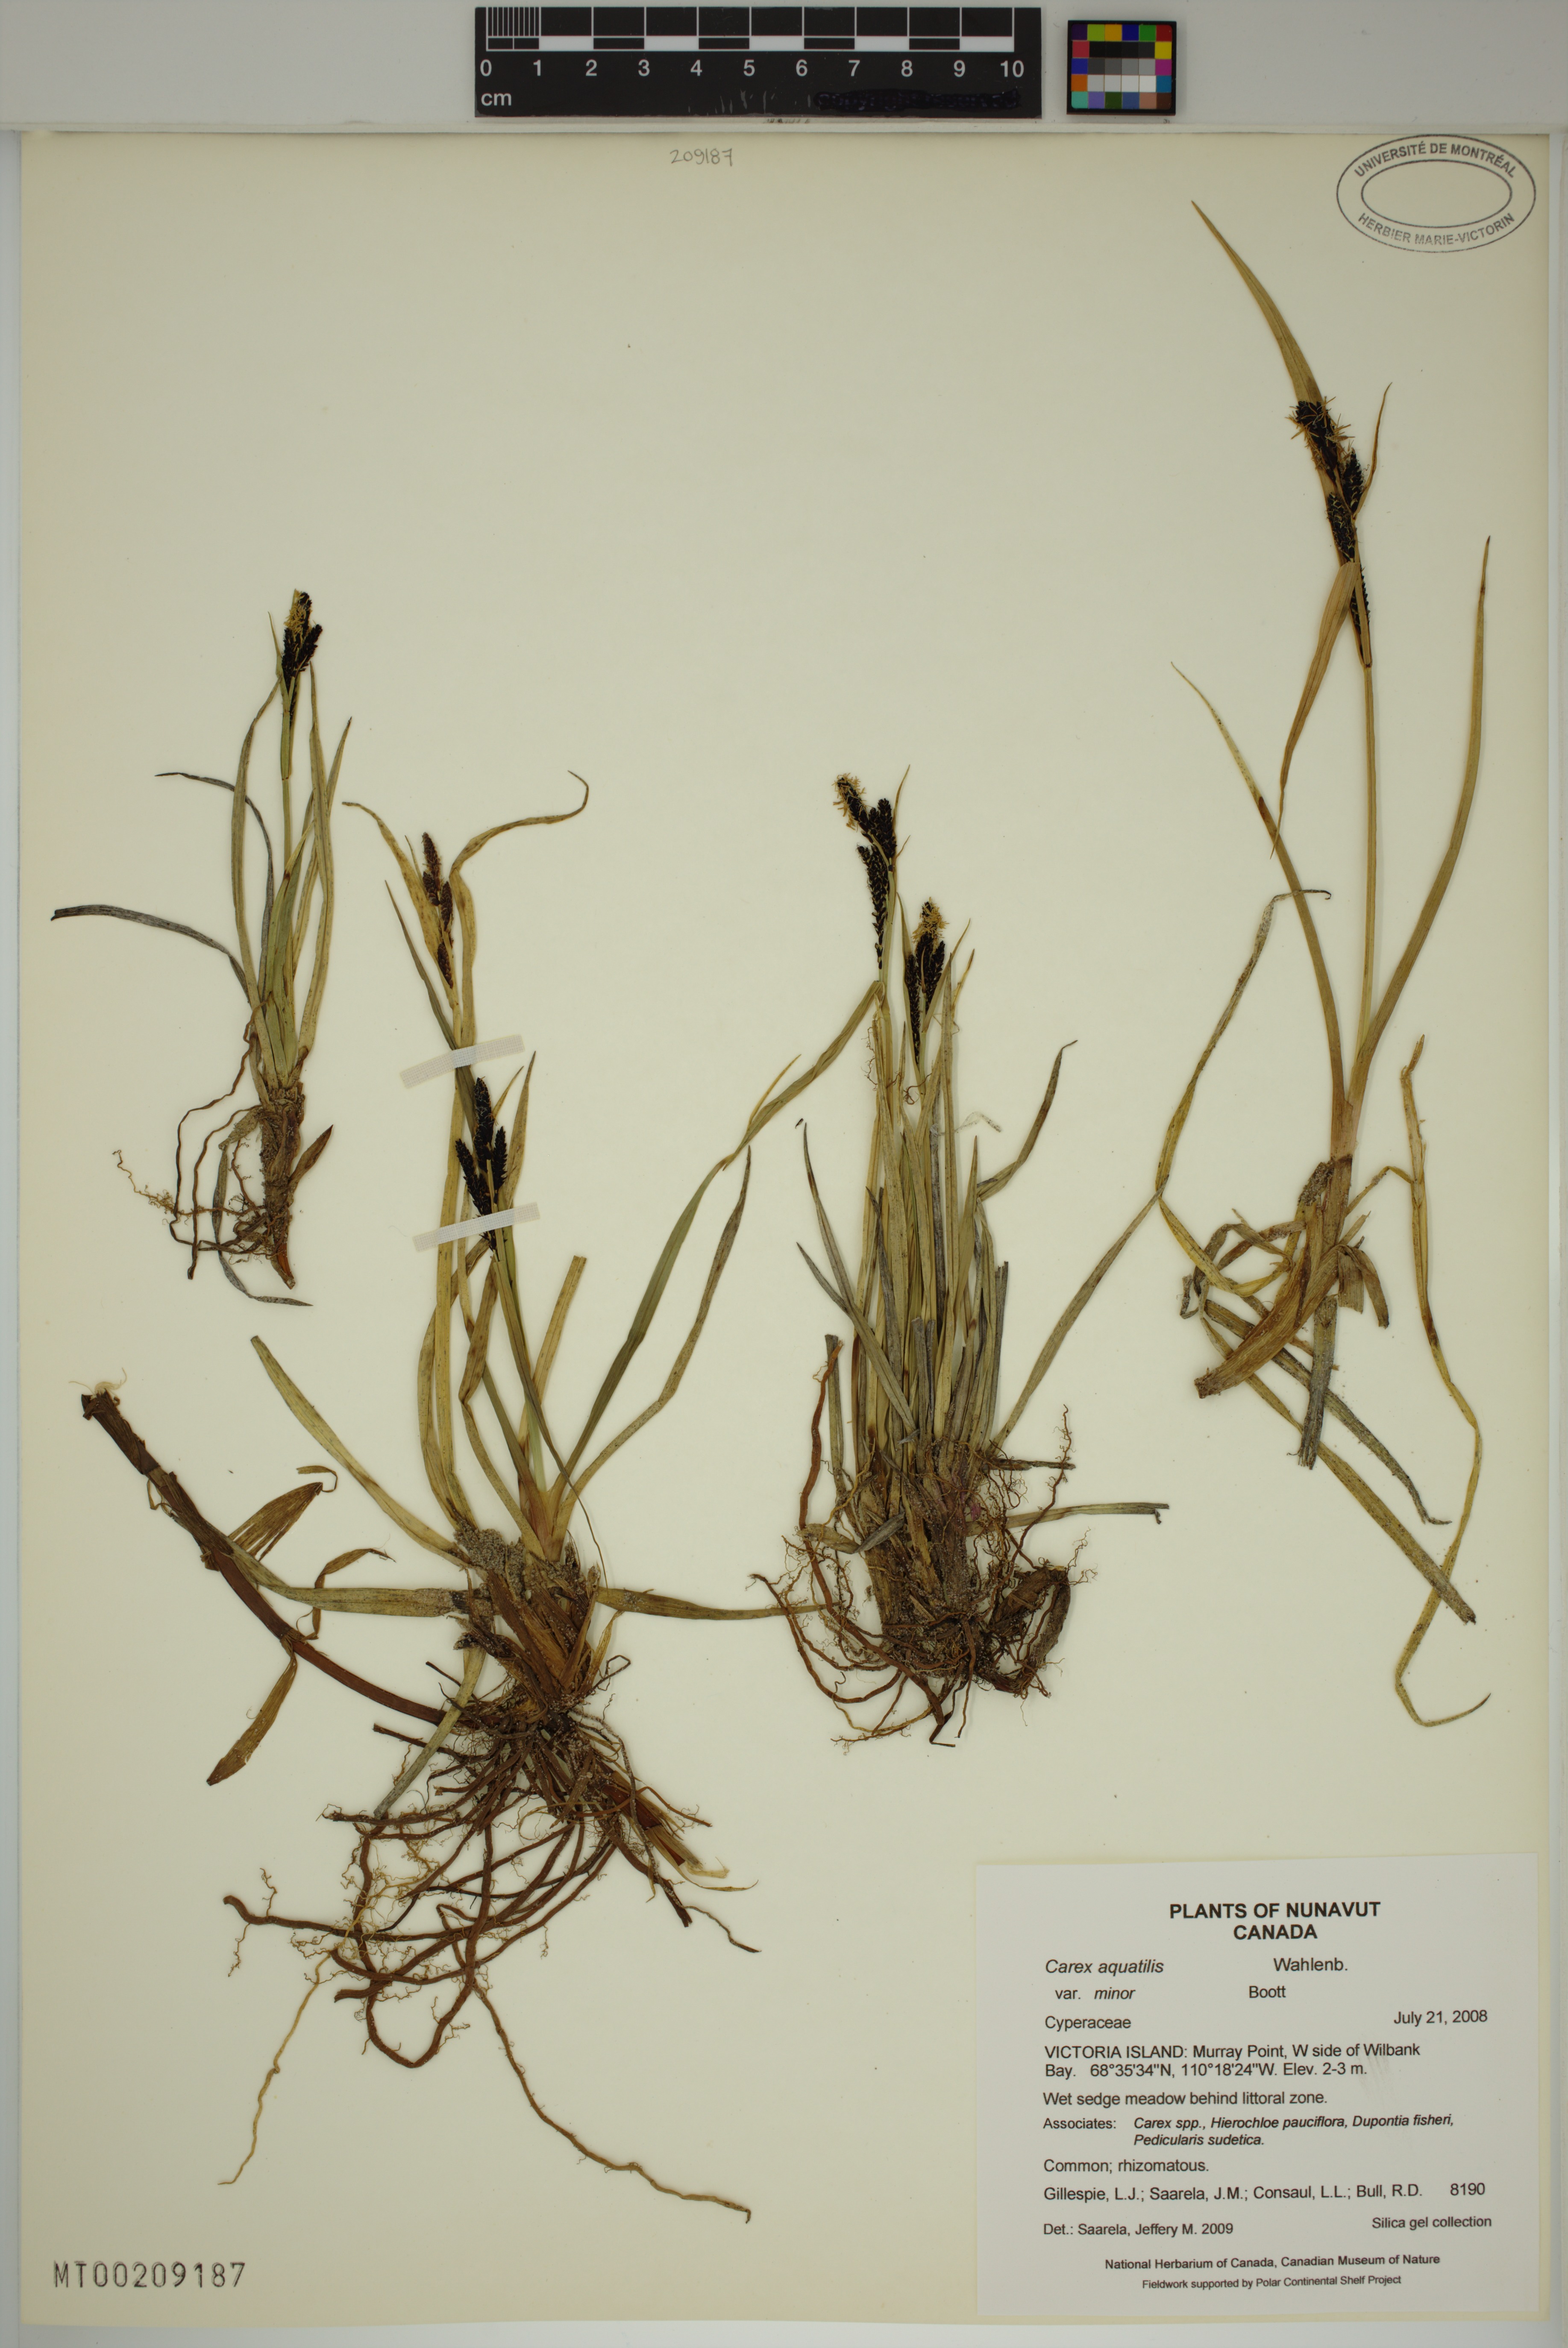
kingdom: Plantae
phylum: Tracheophyta
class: Liliopsida
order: Poales
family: Cyperaceae
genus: Carex
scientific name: Carex aquatilis
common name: Water sedge
